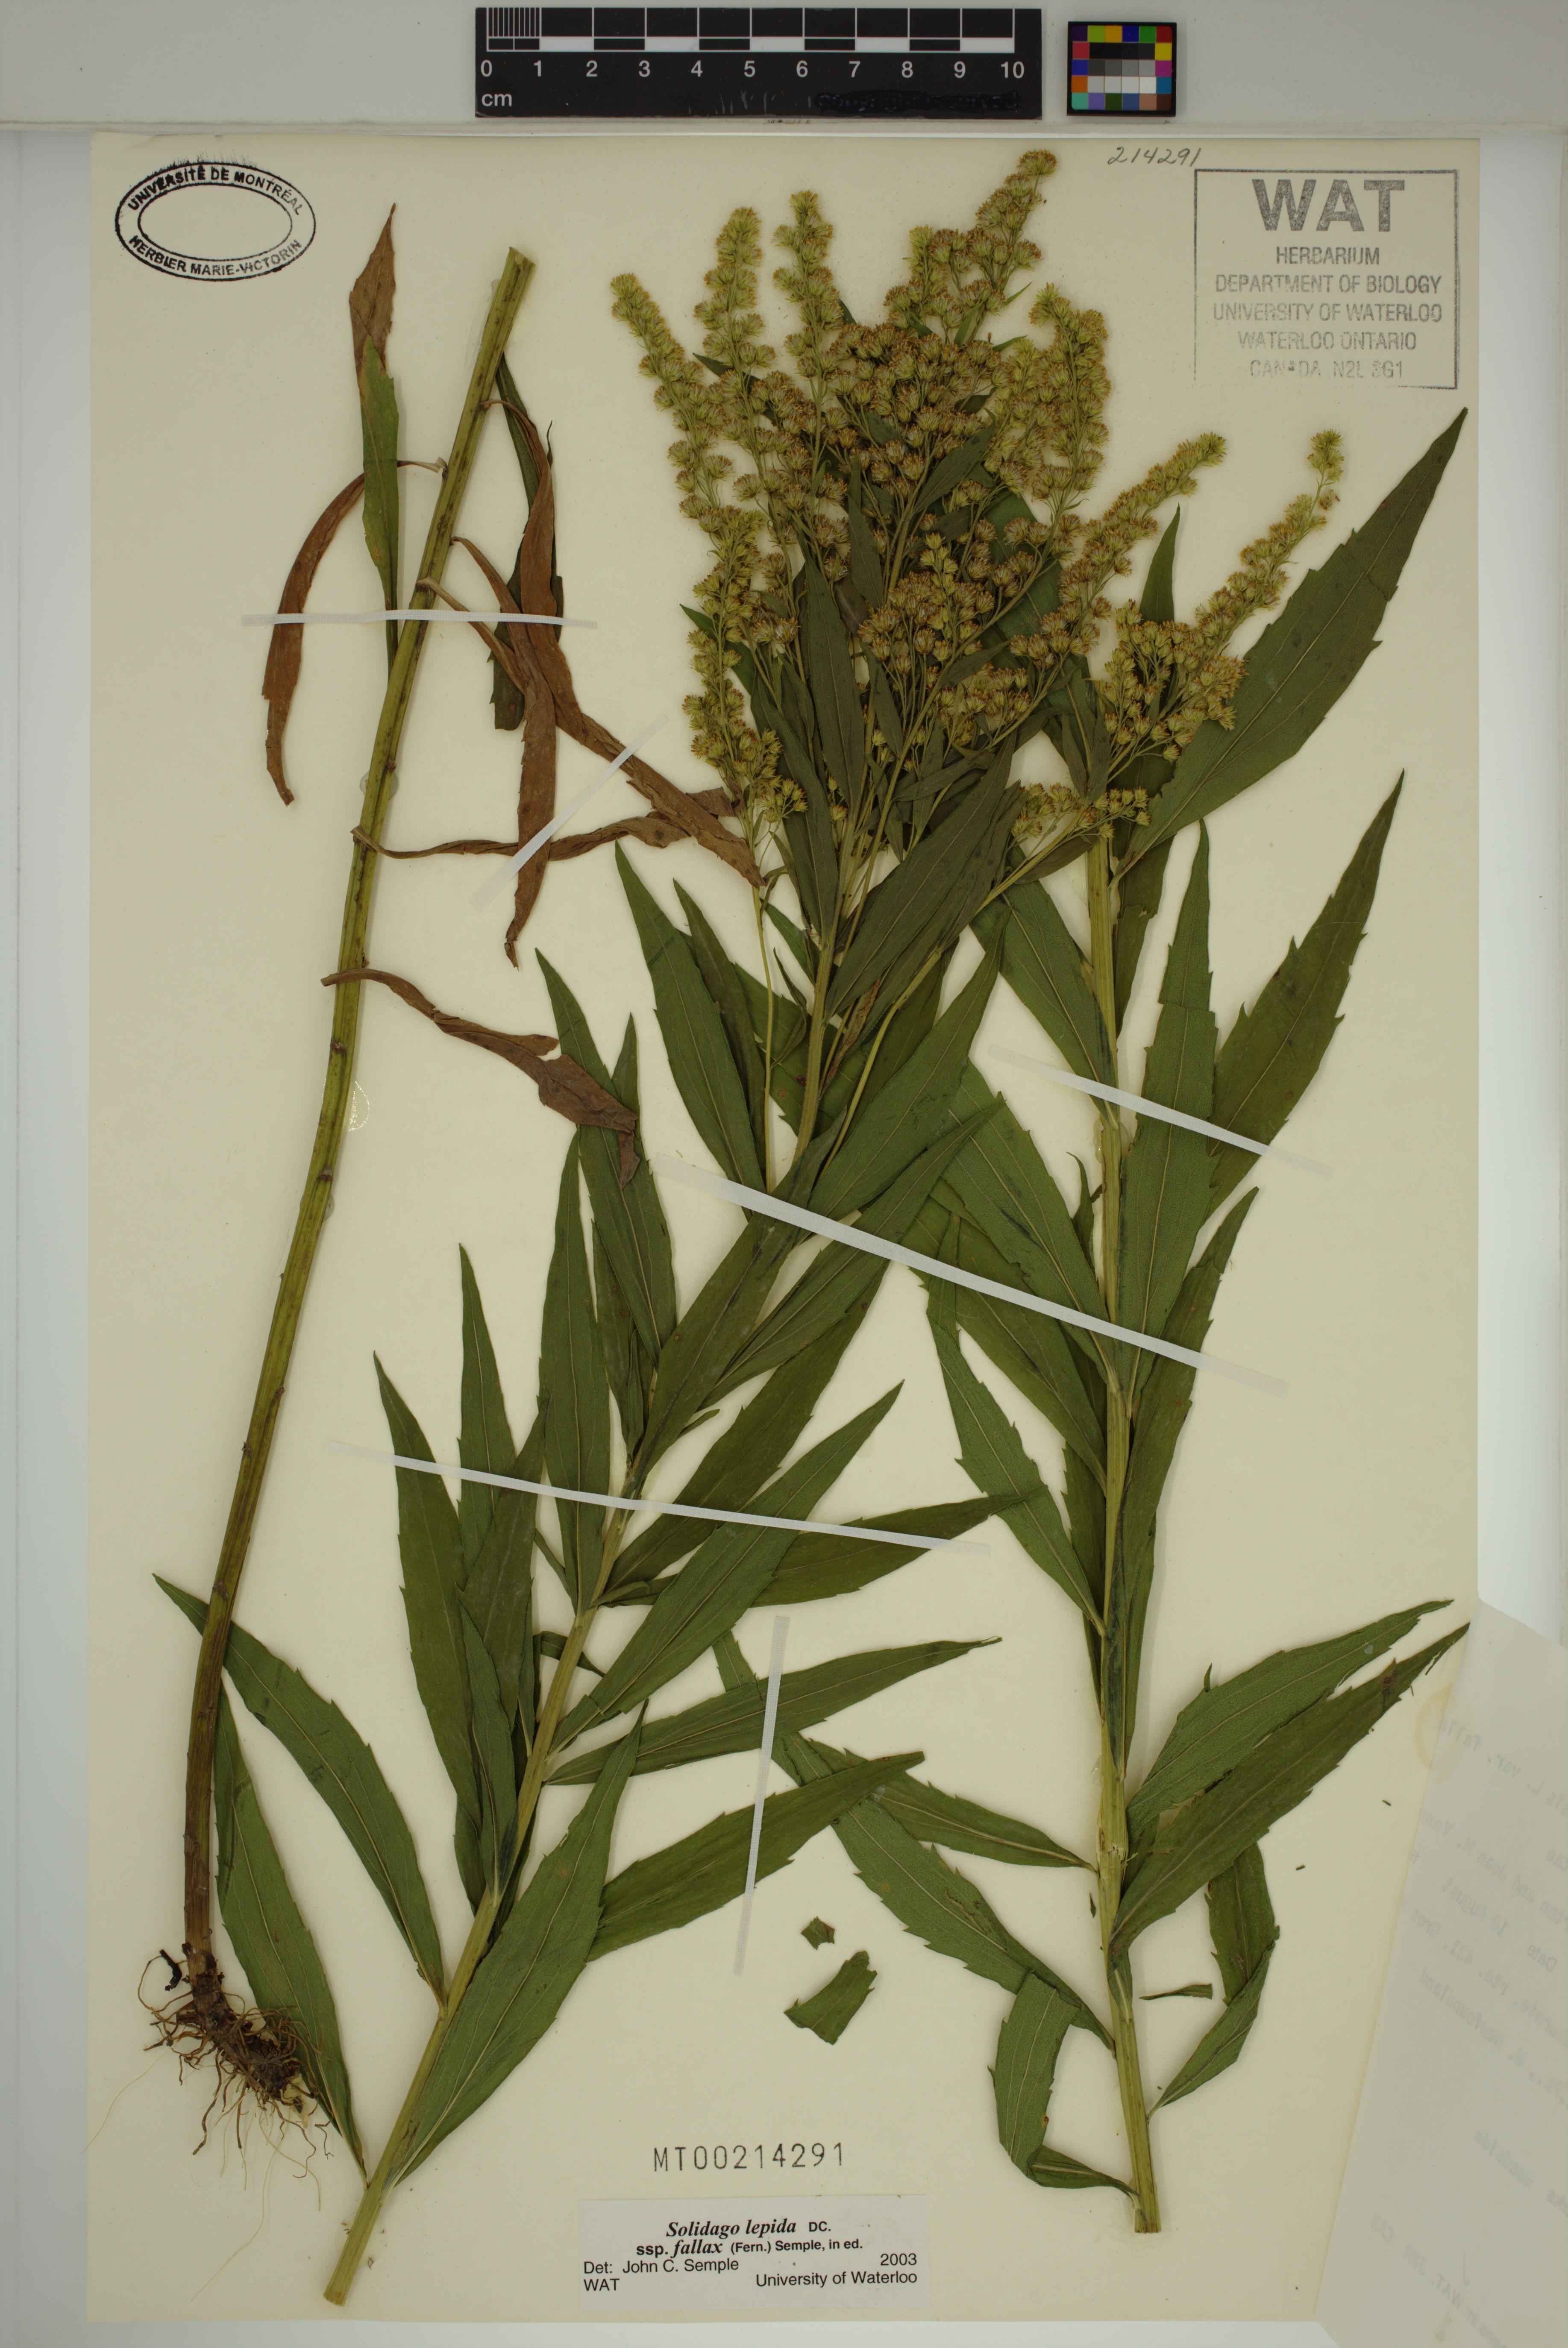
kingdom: Plantae
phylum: Tracheophyta
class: Magnoliopsida
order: Asterales
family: Asteraceae
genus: Solidago
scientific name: Solidago fallax
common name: Big-toothed canada goldenrod
